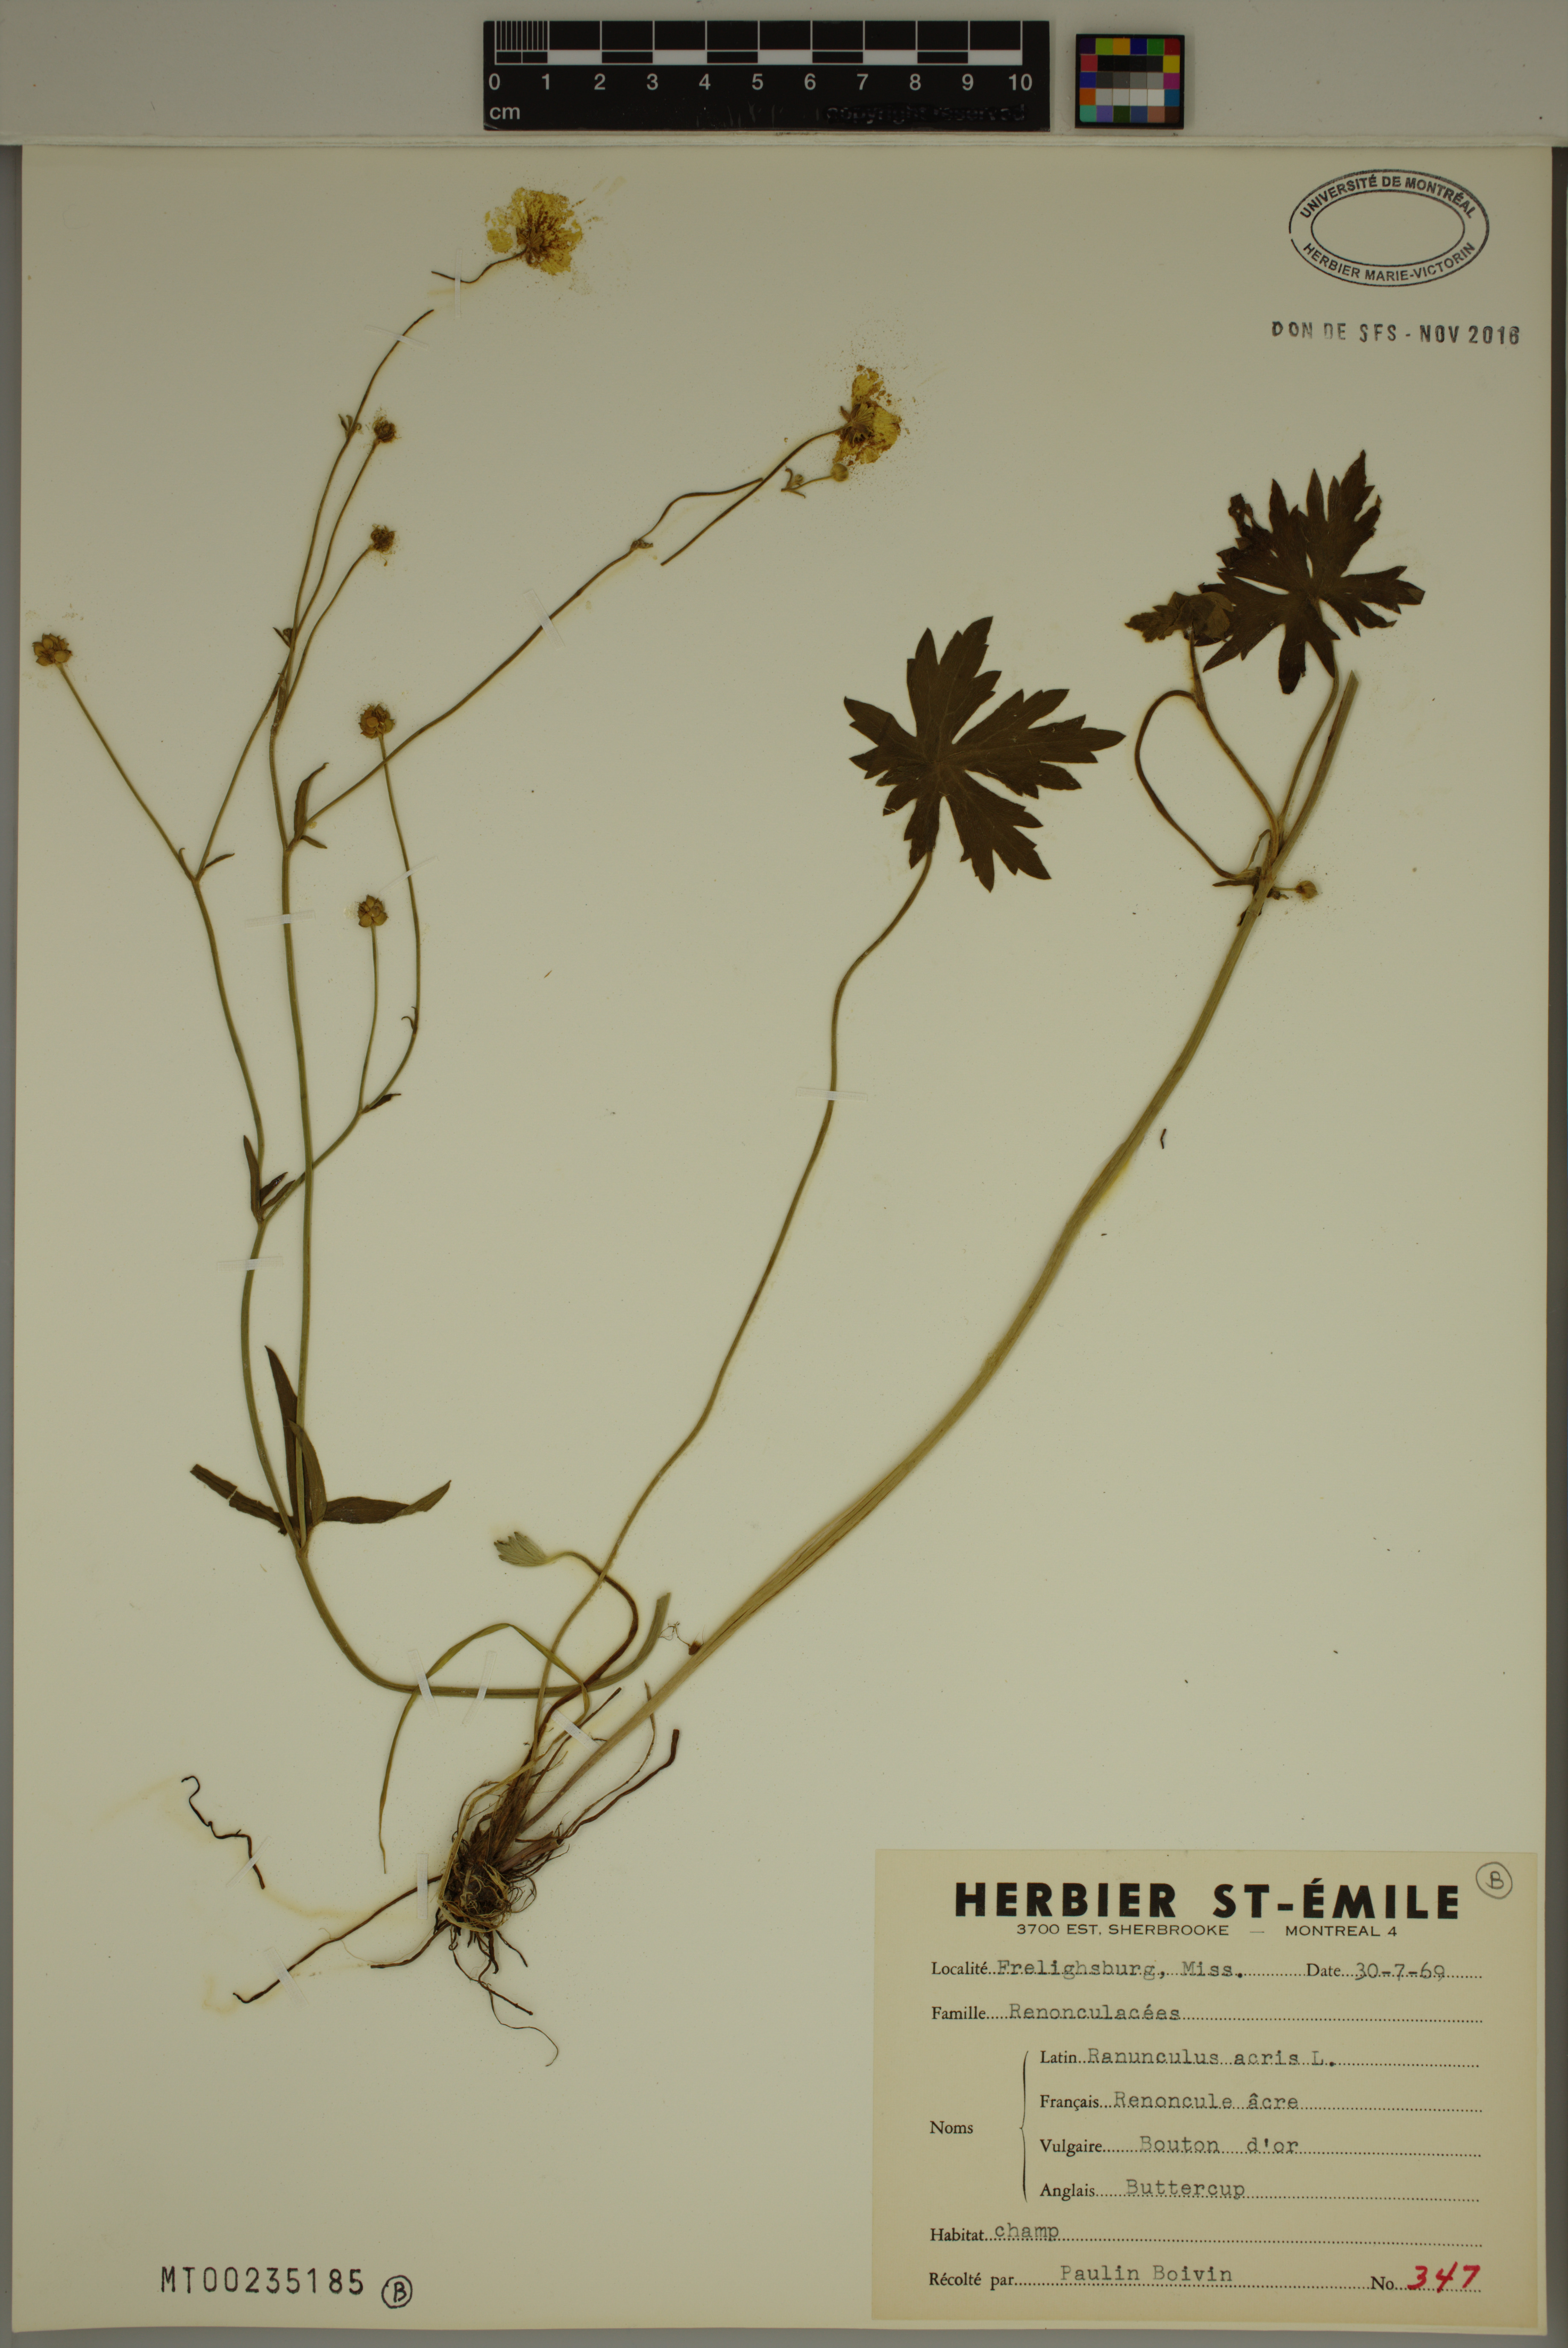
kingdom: Plantae
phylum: Tracheophyta
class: Magnoliopsida
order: Ranunculales
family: Ranunculaceae
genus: Ranunculus
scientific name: Ranunculus acris
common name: Meadow buttercup
